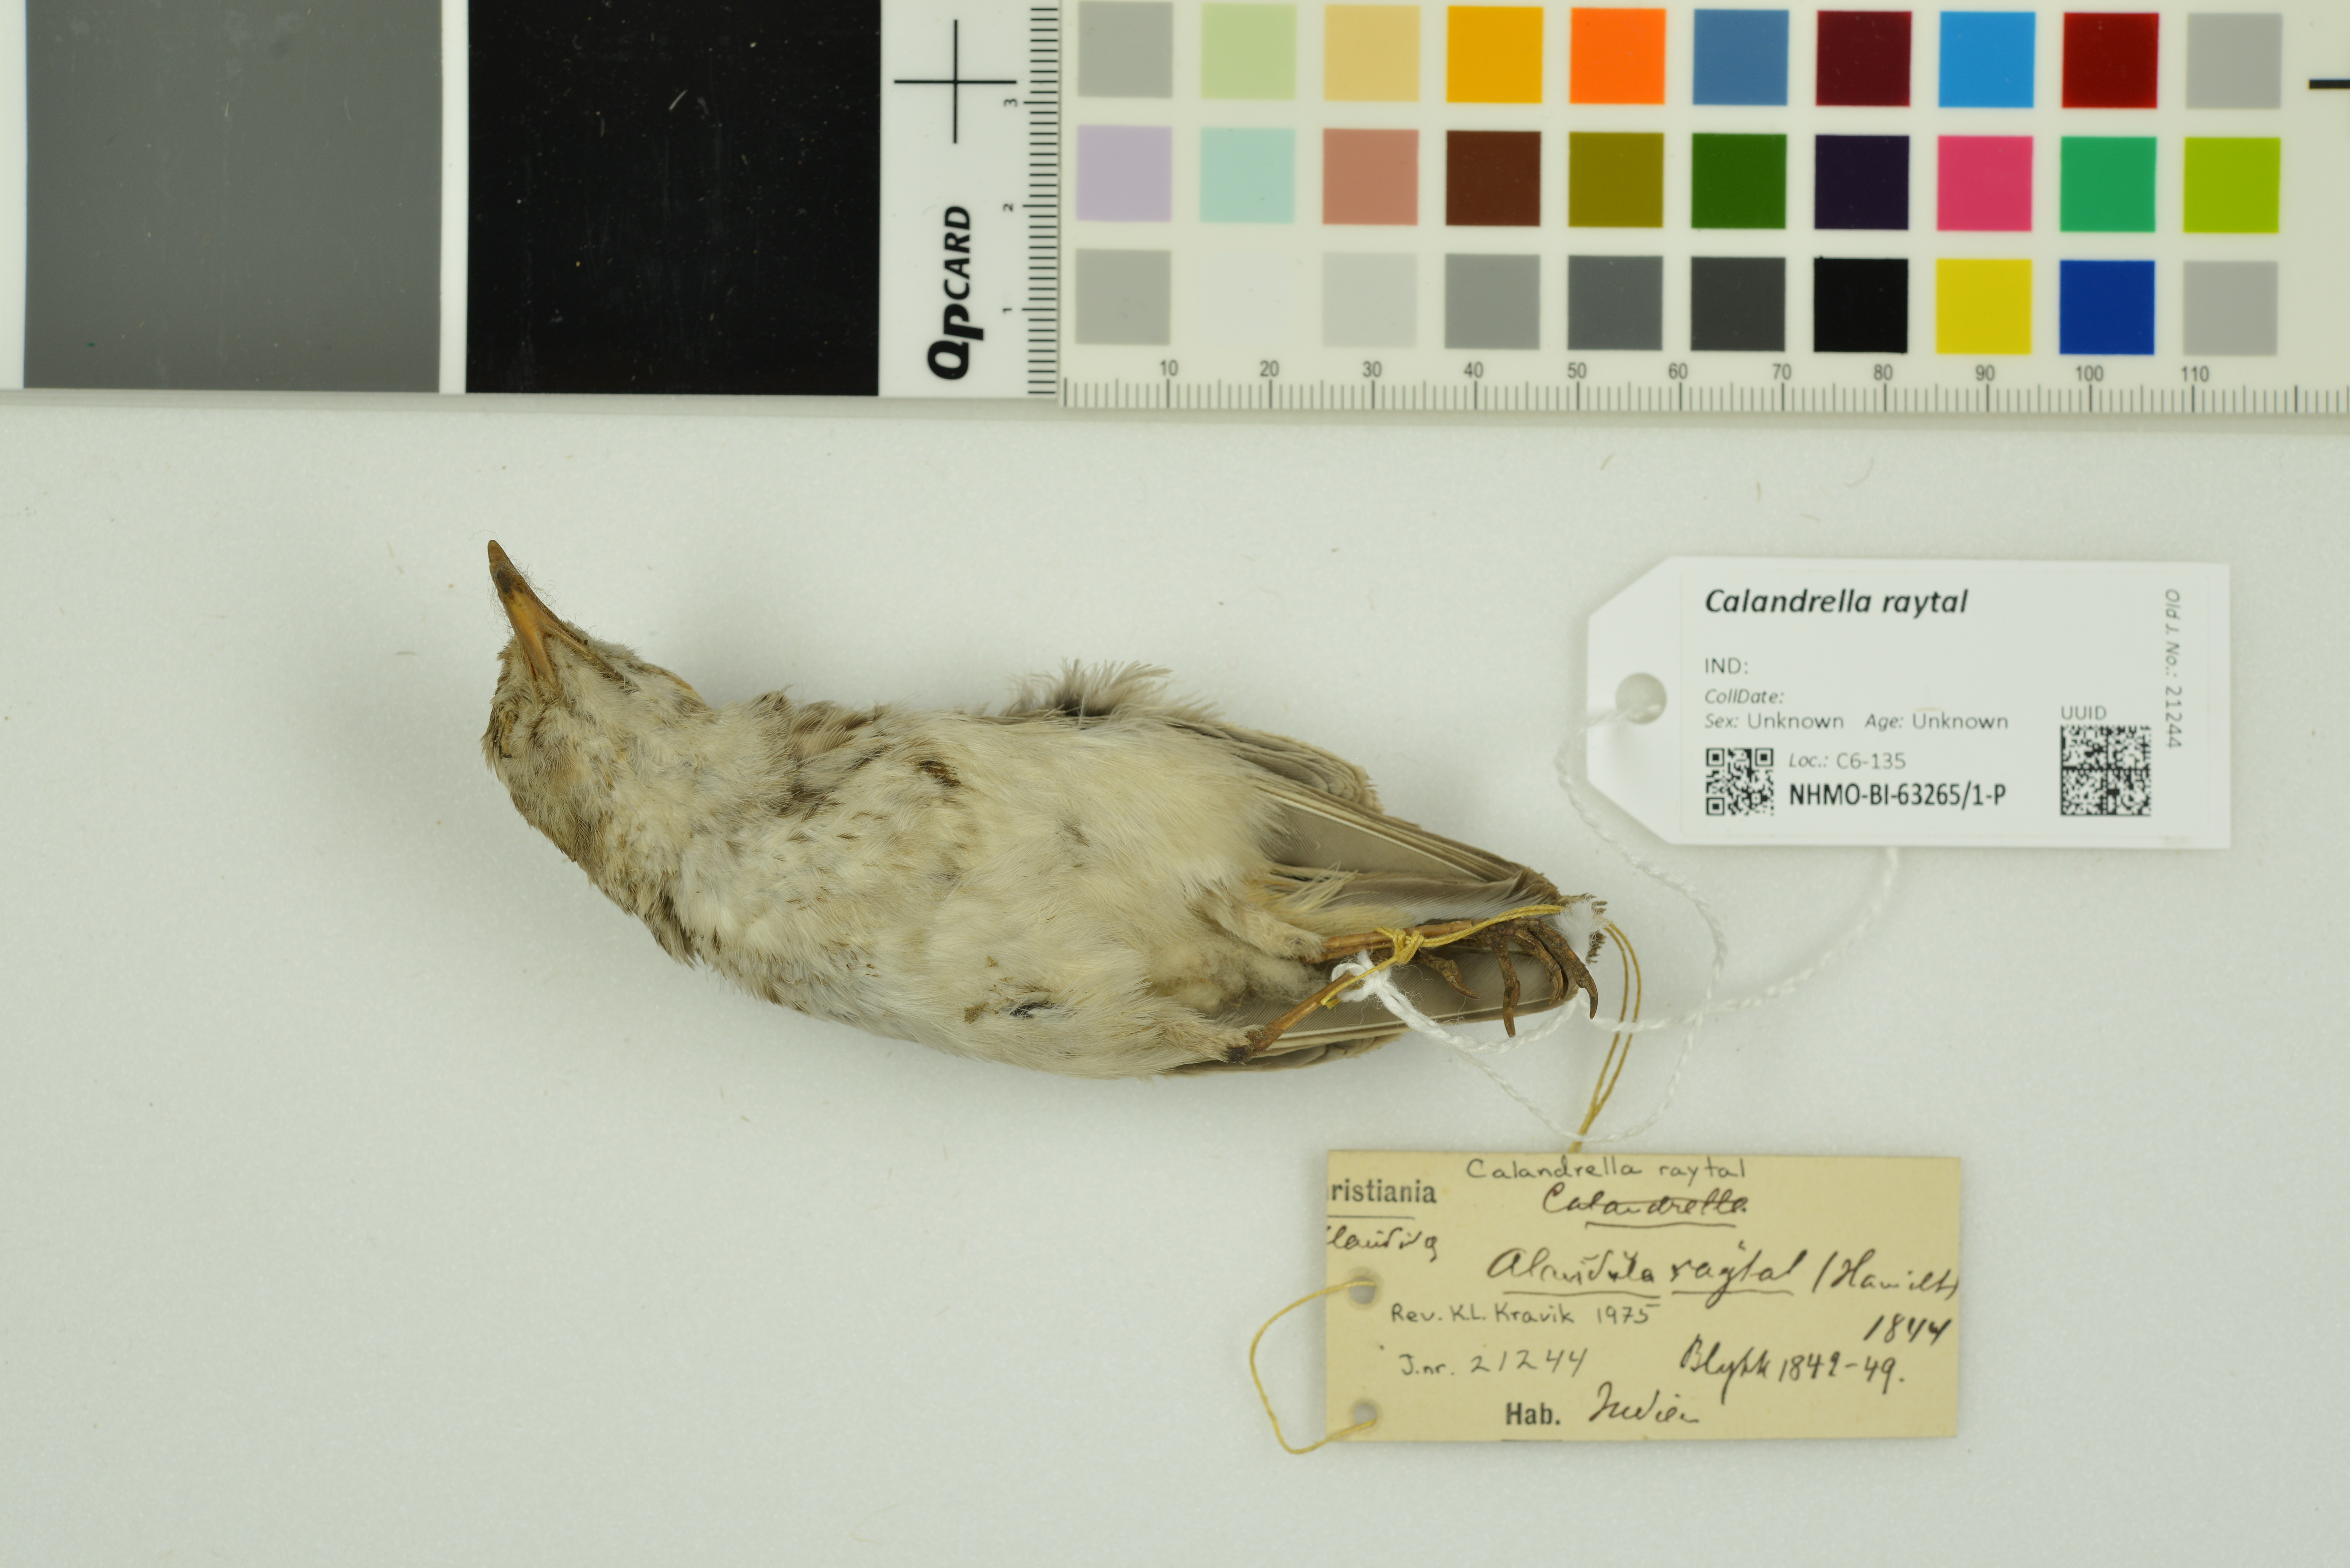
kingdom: Animalia
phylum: Chordata
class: Aves
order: Passeriformes
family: Alaudidae
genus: Calandrella
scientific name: Calandrella raytal
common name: Sand lark
